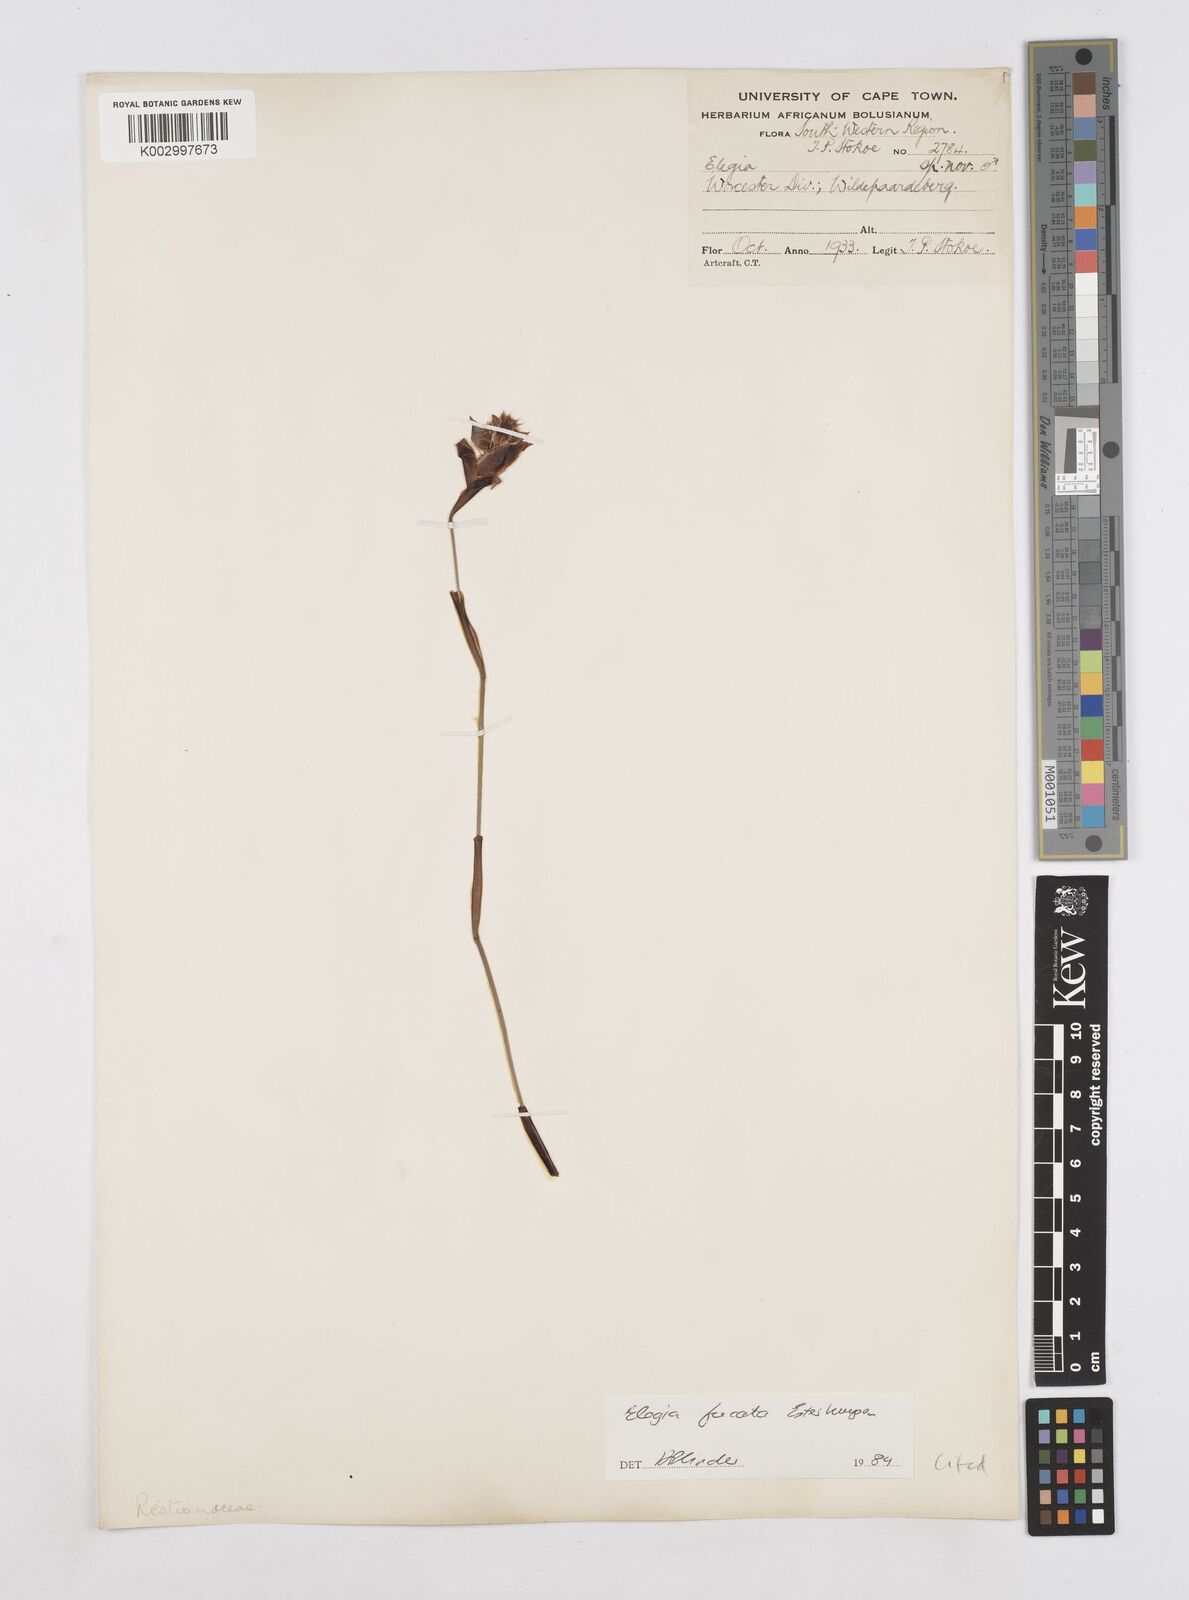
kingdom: Plantae
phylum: Tracheophyta
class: Liliopsida
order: Poales
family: Restionaceae
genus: Elegia
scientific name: Elegia fucata
